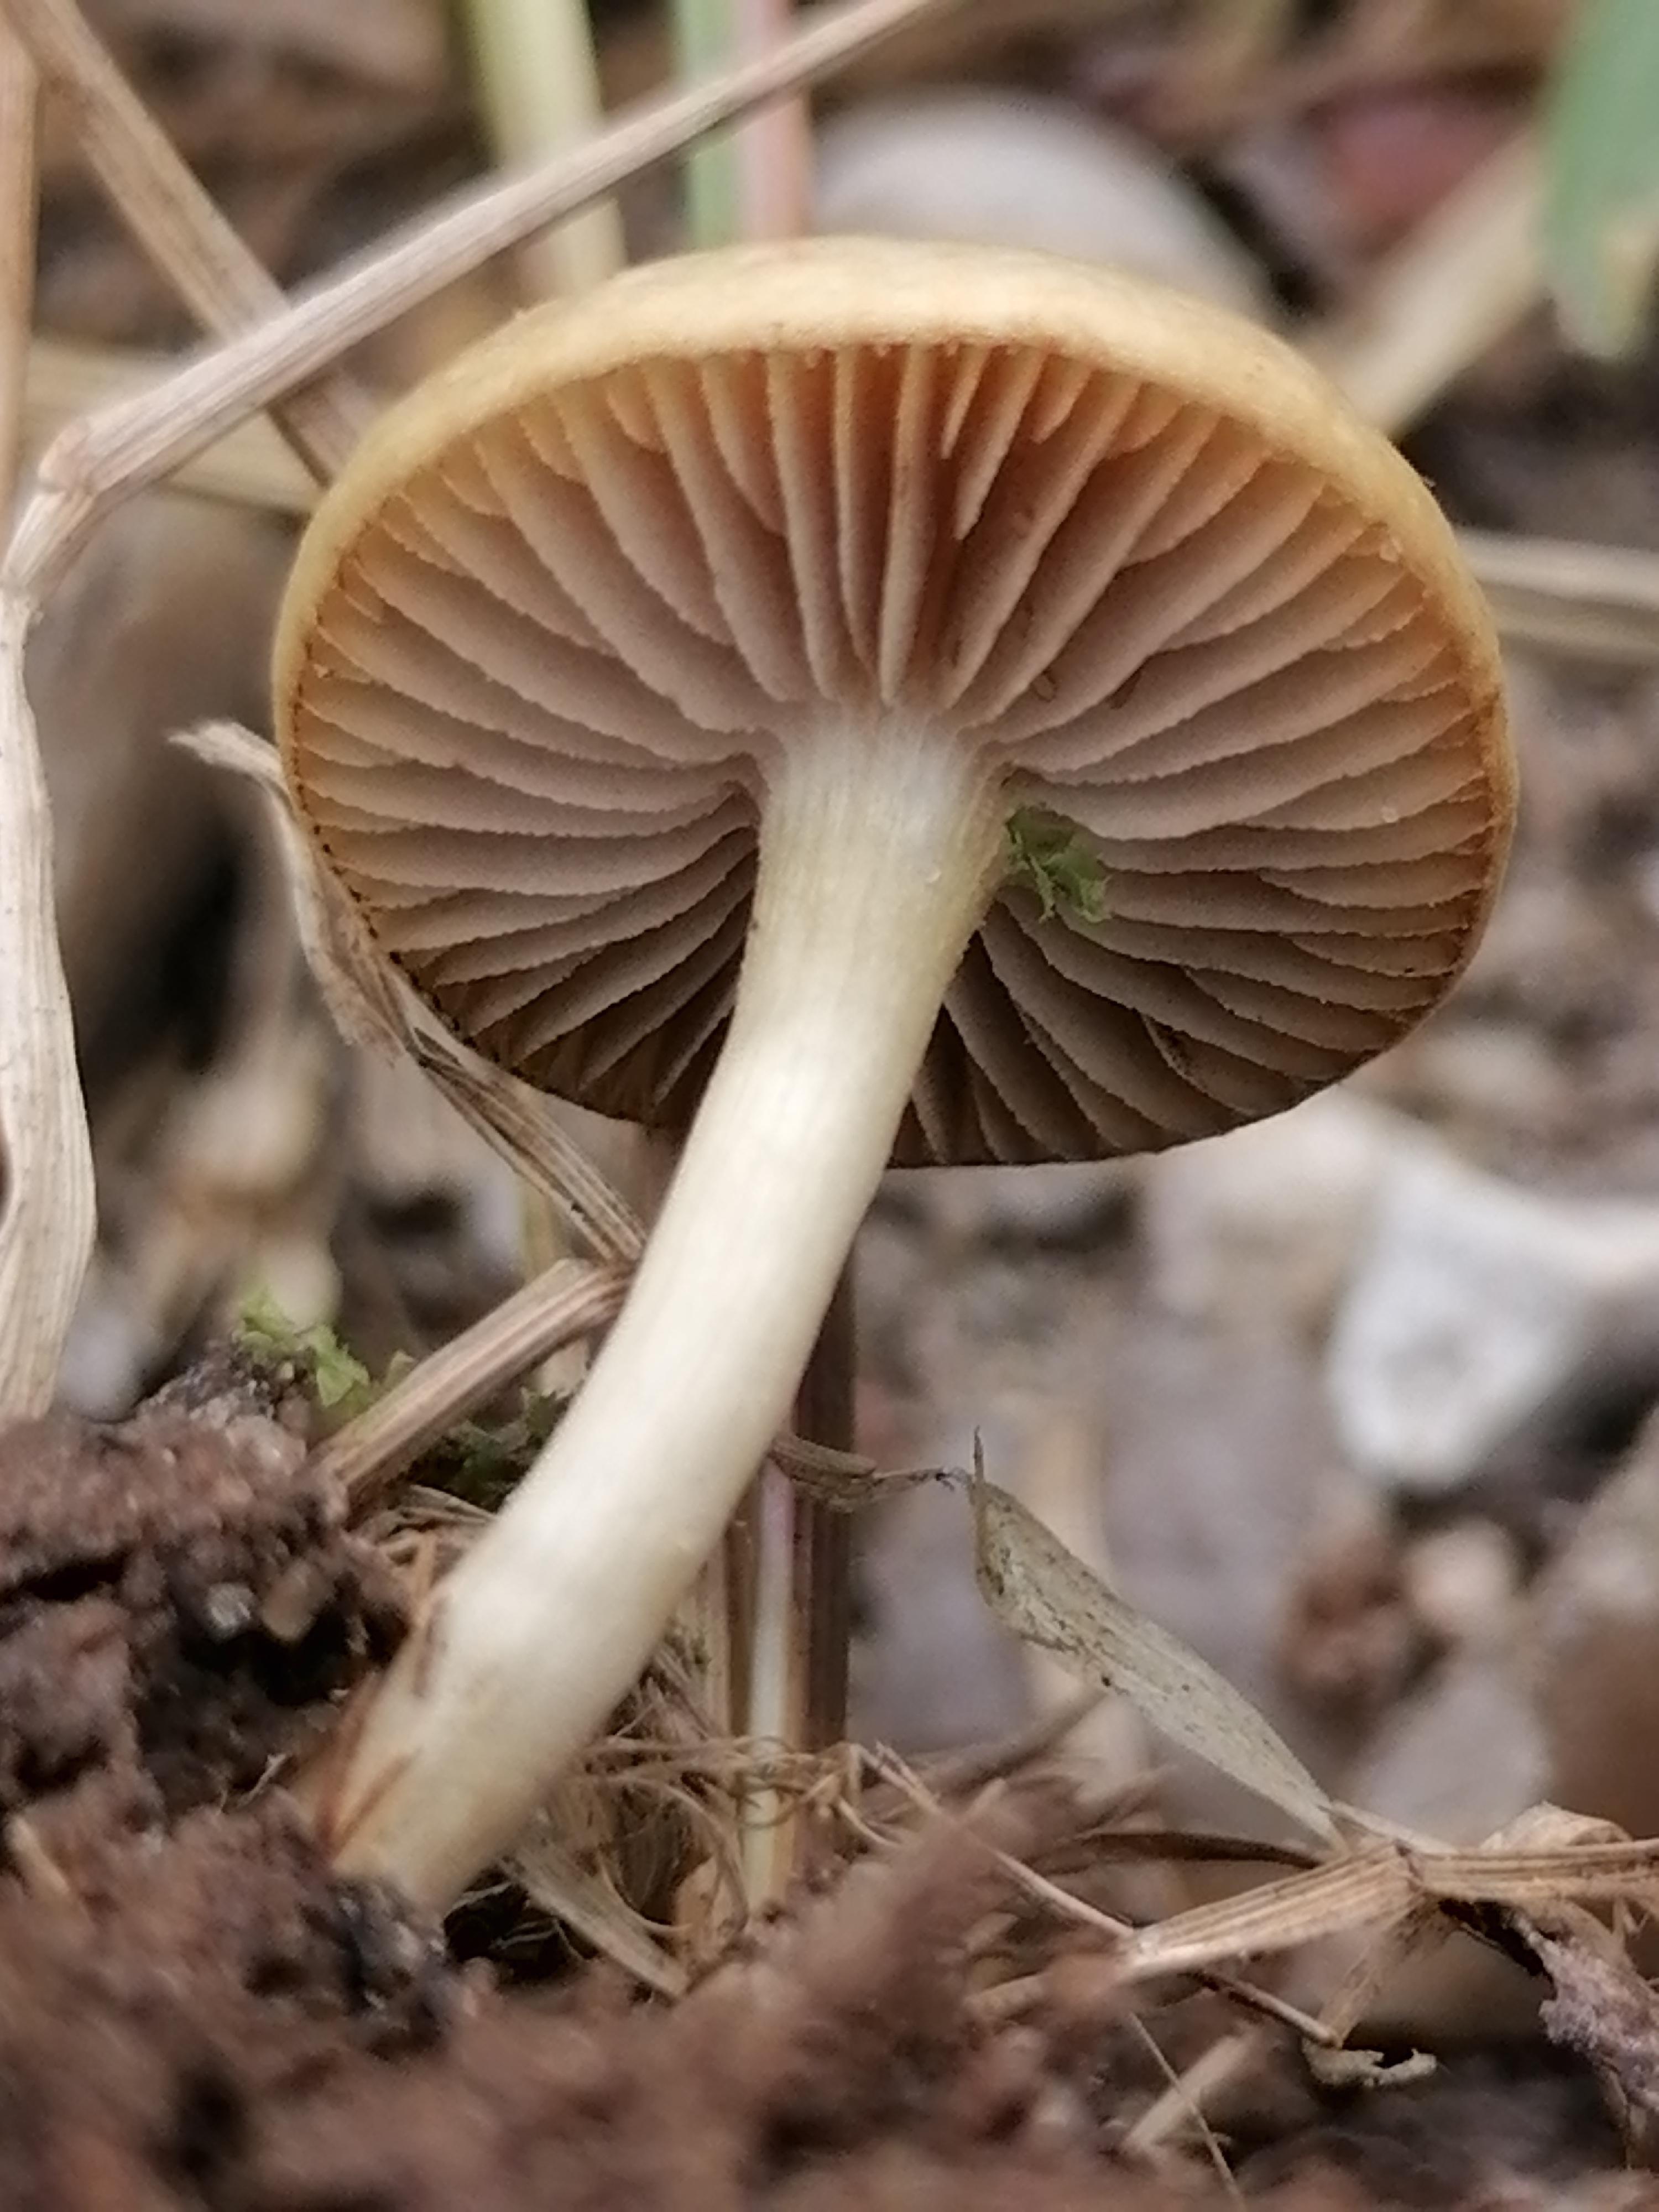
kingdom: Fungi
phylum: Basidiomycota
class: Agaricomycetes
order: Agaricales
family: Strophariaceae
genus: Agrocybe
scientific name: Agrocybe pediades
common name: almindelig agerhat
